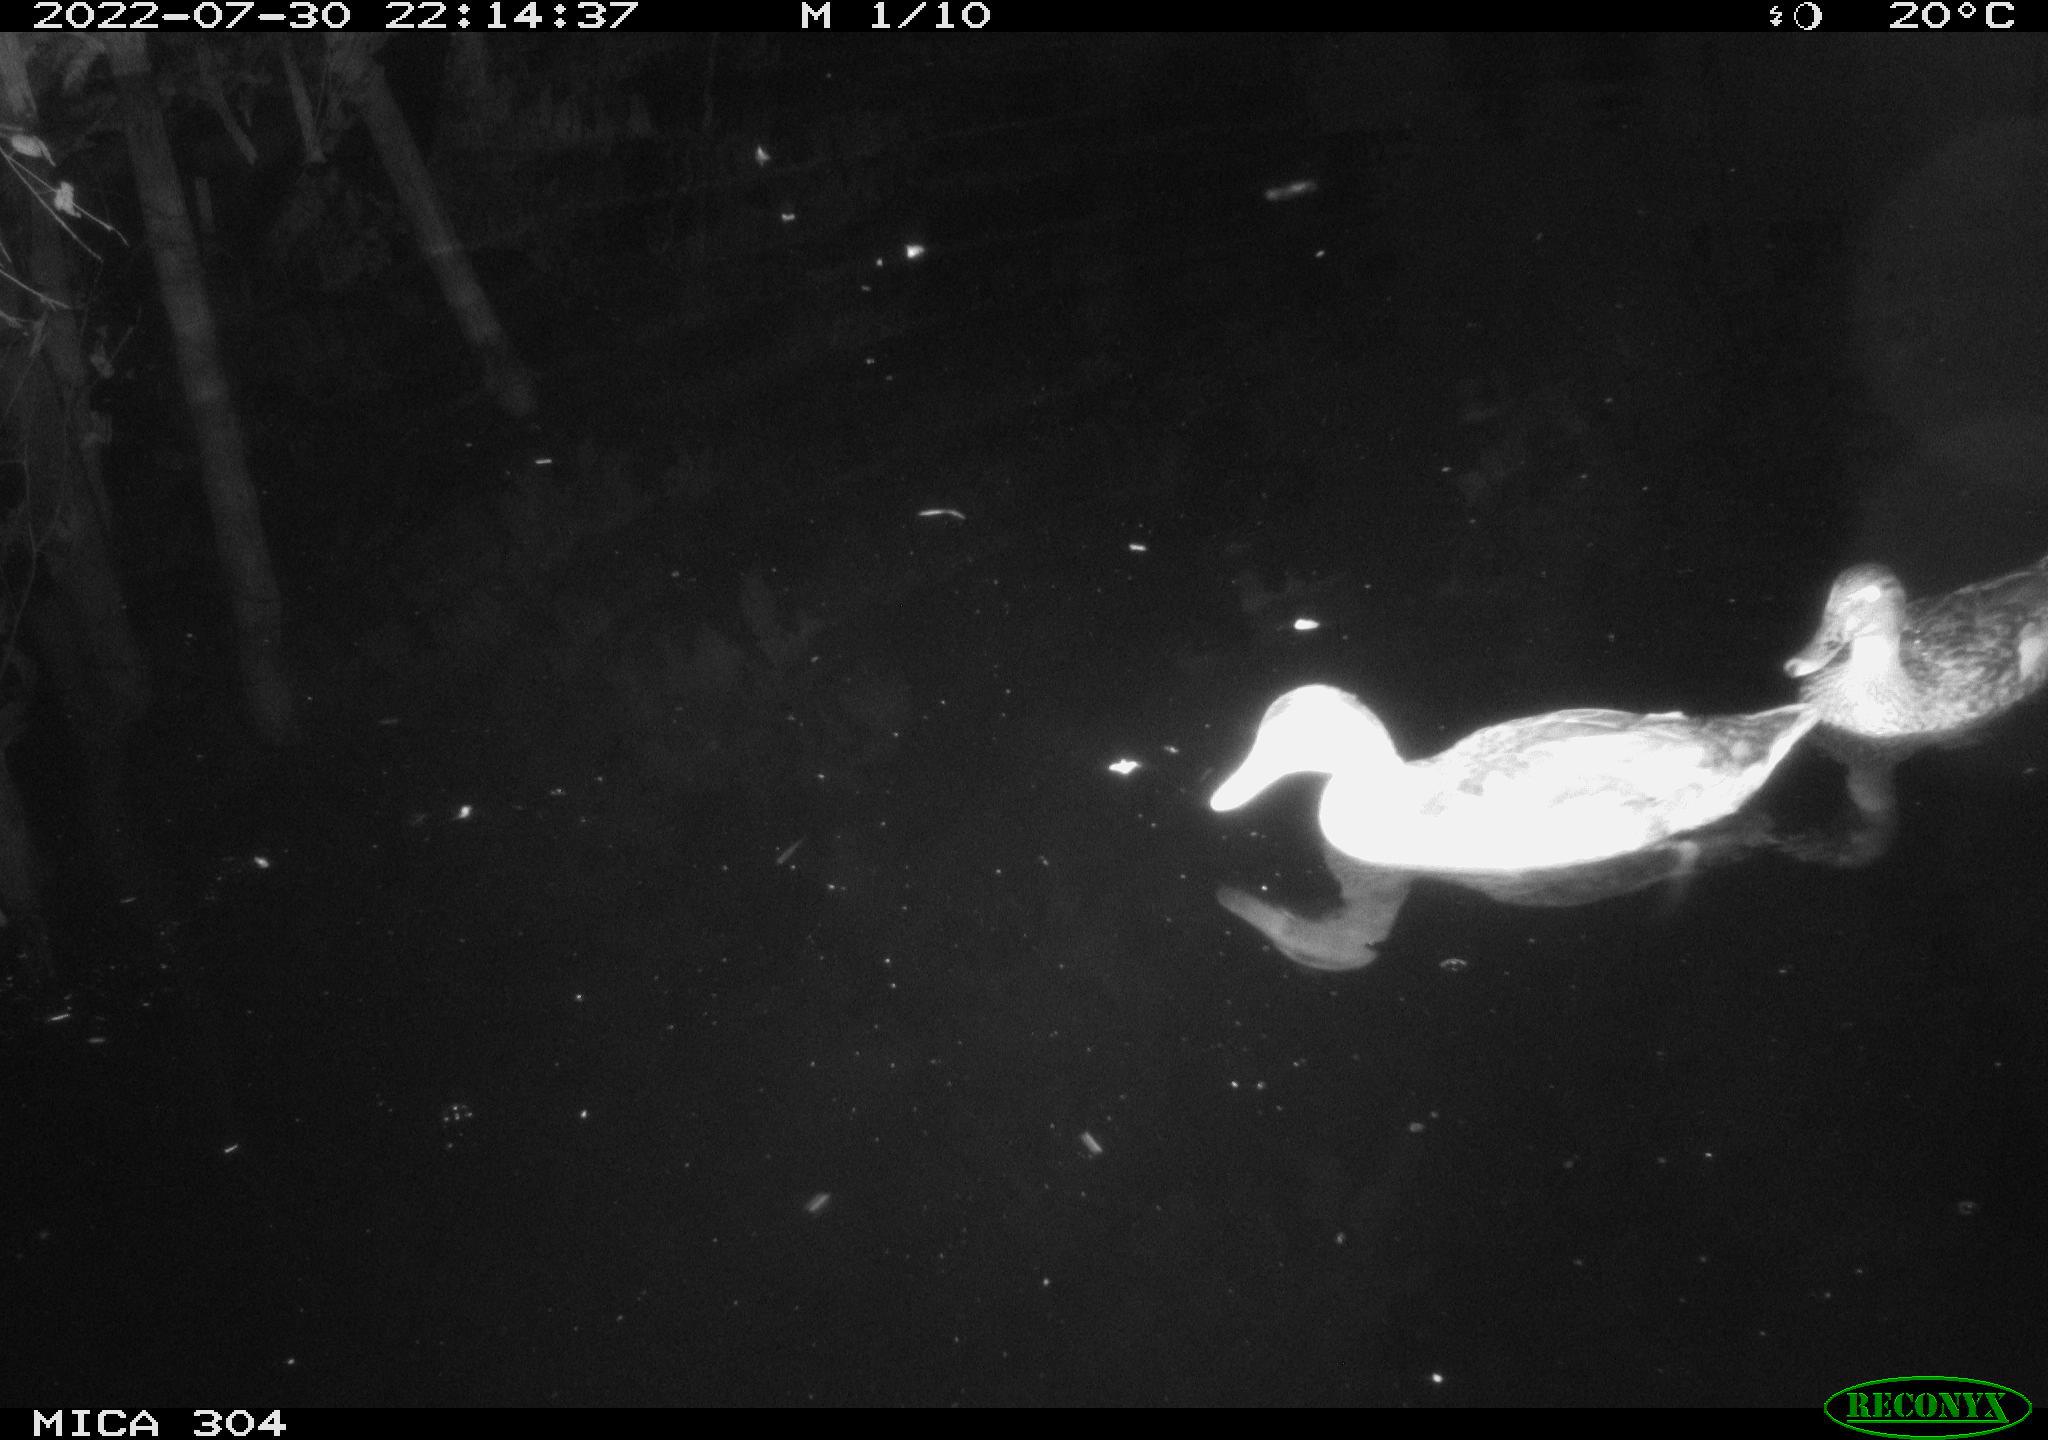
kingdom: Animalia
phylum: Chordata
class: Aves
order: Anseriformes
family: Anatidae
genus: Anas
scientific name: Anas platyrhynchos
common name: Mallard
